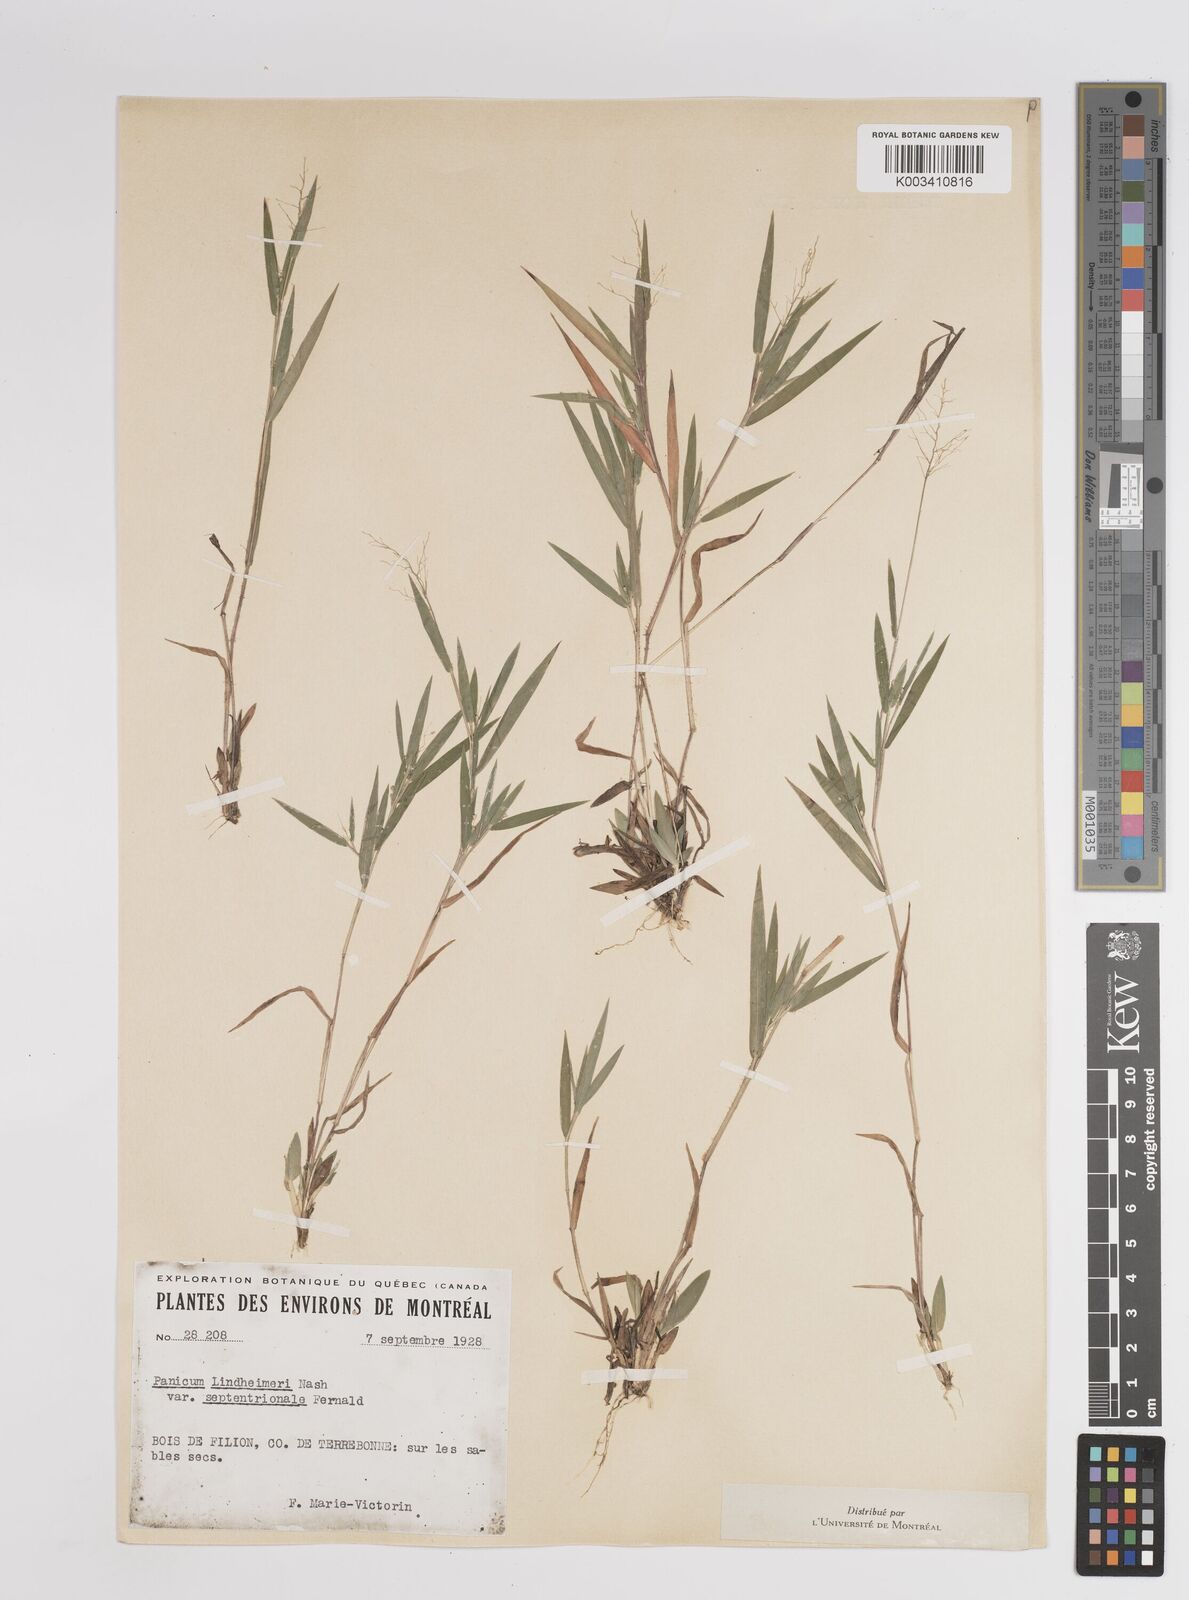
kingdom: Plantae
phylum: Tracheophyta
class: Liliopsida
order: Poales
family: Poaceae
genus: Dichanthelium
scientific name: Dichanthelium acuminatum
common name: Hairy panic grass
